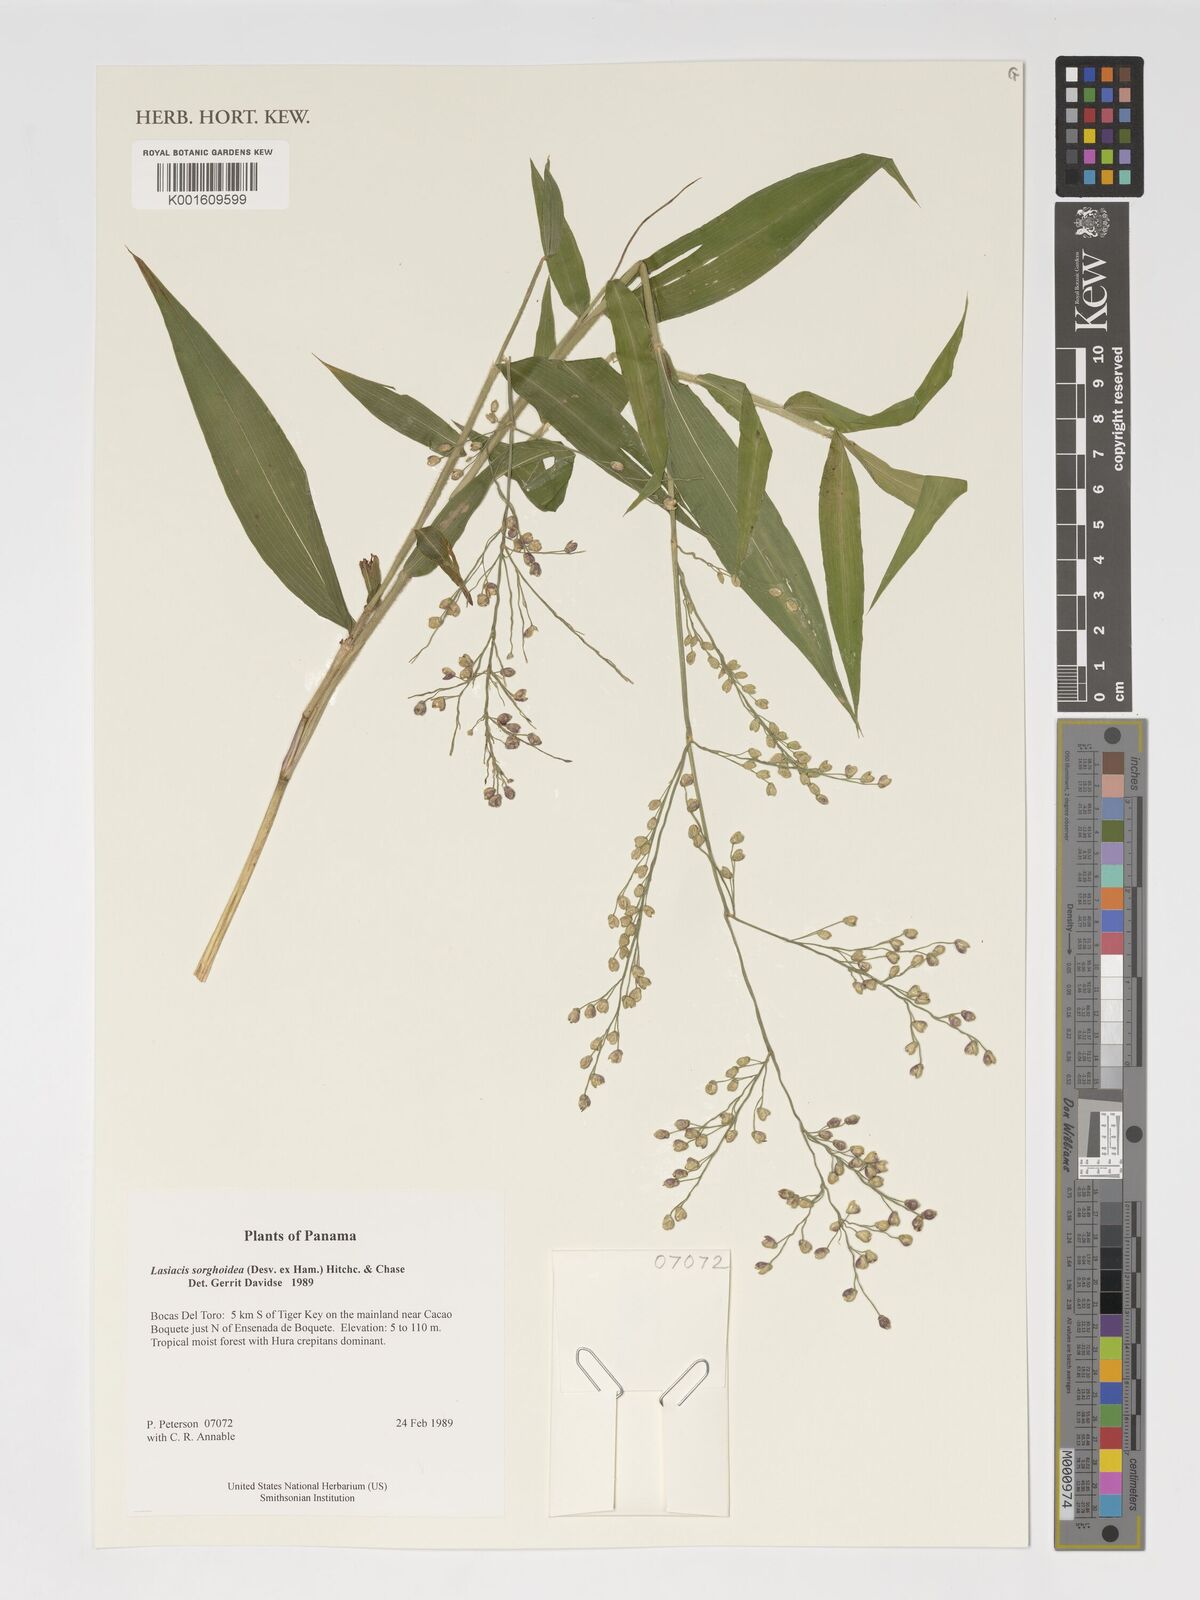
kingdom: Plantae
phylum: Tracheophyta
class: Liliopsida
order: Poales
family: Poaceae
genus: Lasiacis
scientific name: Lasiacis maculata
